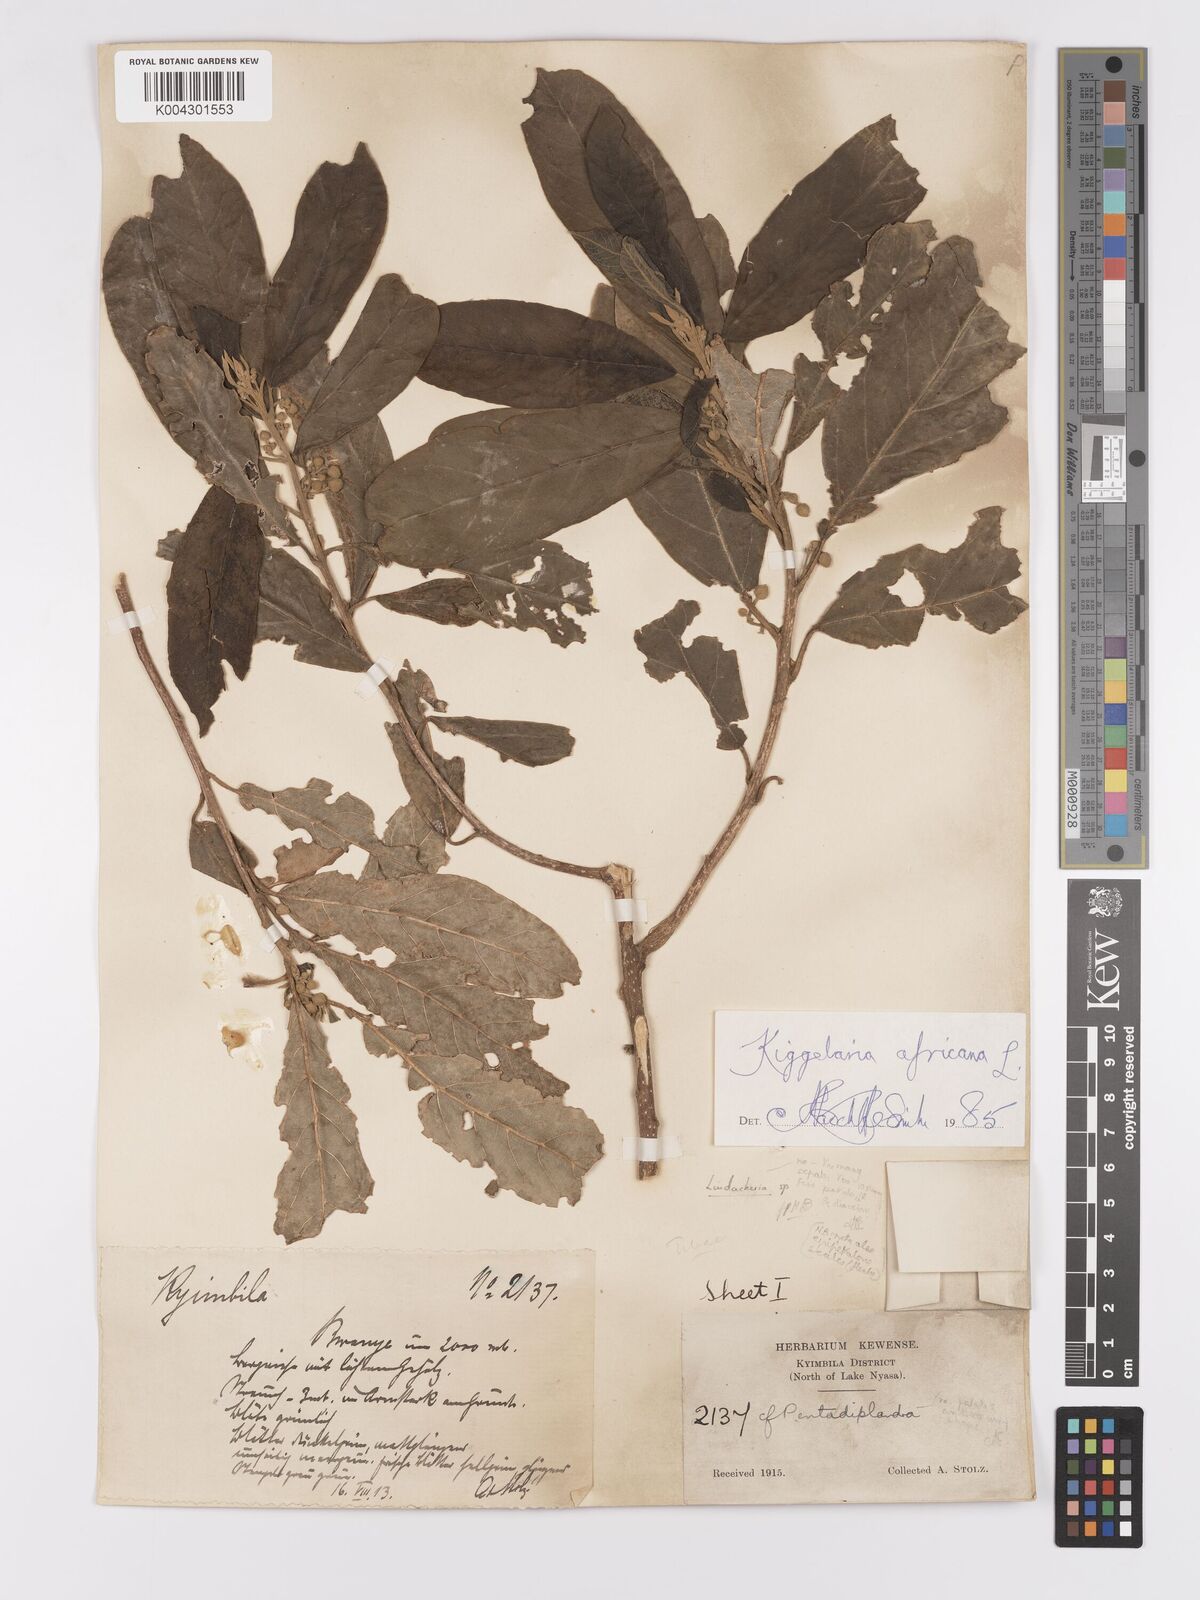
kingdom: Plantae
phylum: Tracheophyta
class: Magnoliopsida
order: Malpighiales
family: Achariaceae
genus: Kiggelaria
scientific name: Kiggelaria africana
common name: Wild peach
